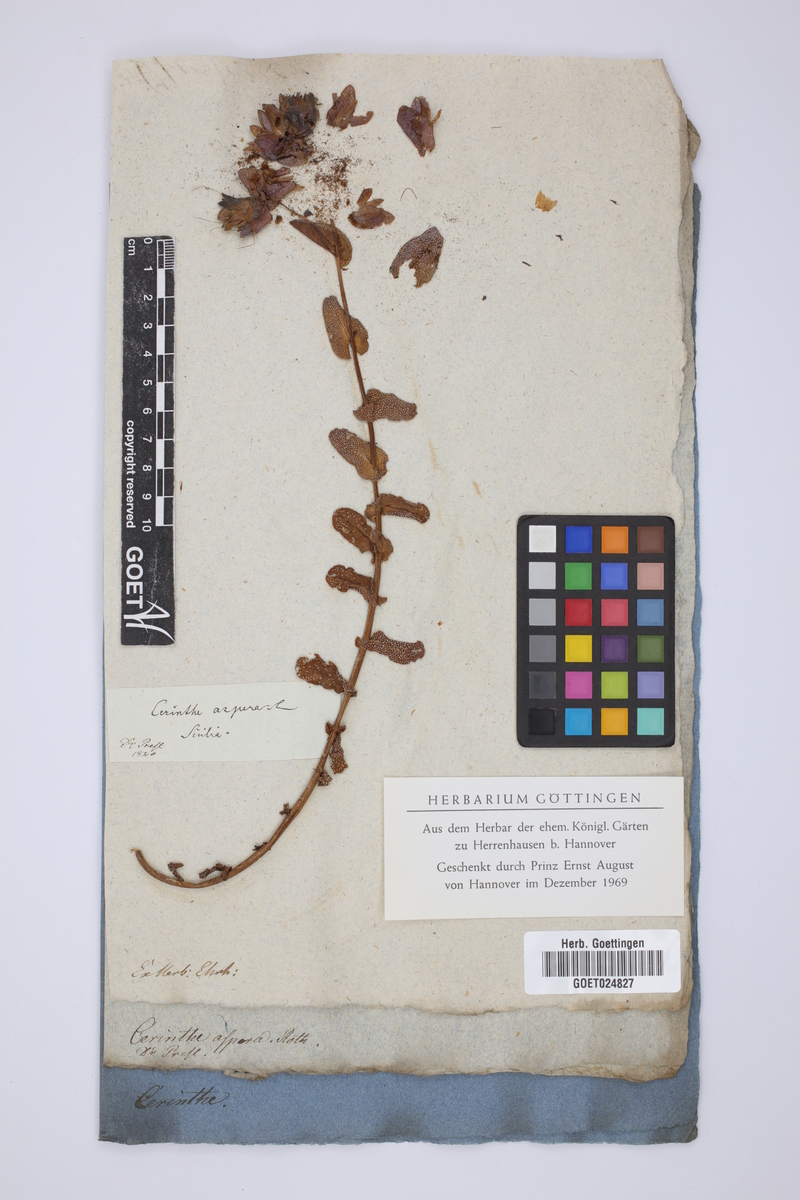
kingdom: Plantae
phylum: Tracheophyta
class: Magnoliopsida
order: Boraginales
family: Boraginaceae
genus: Cerinthe
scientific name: Cerinthe major
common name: Greater honeywort
